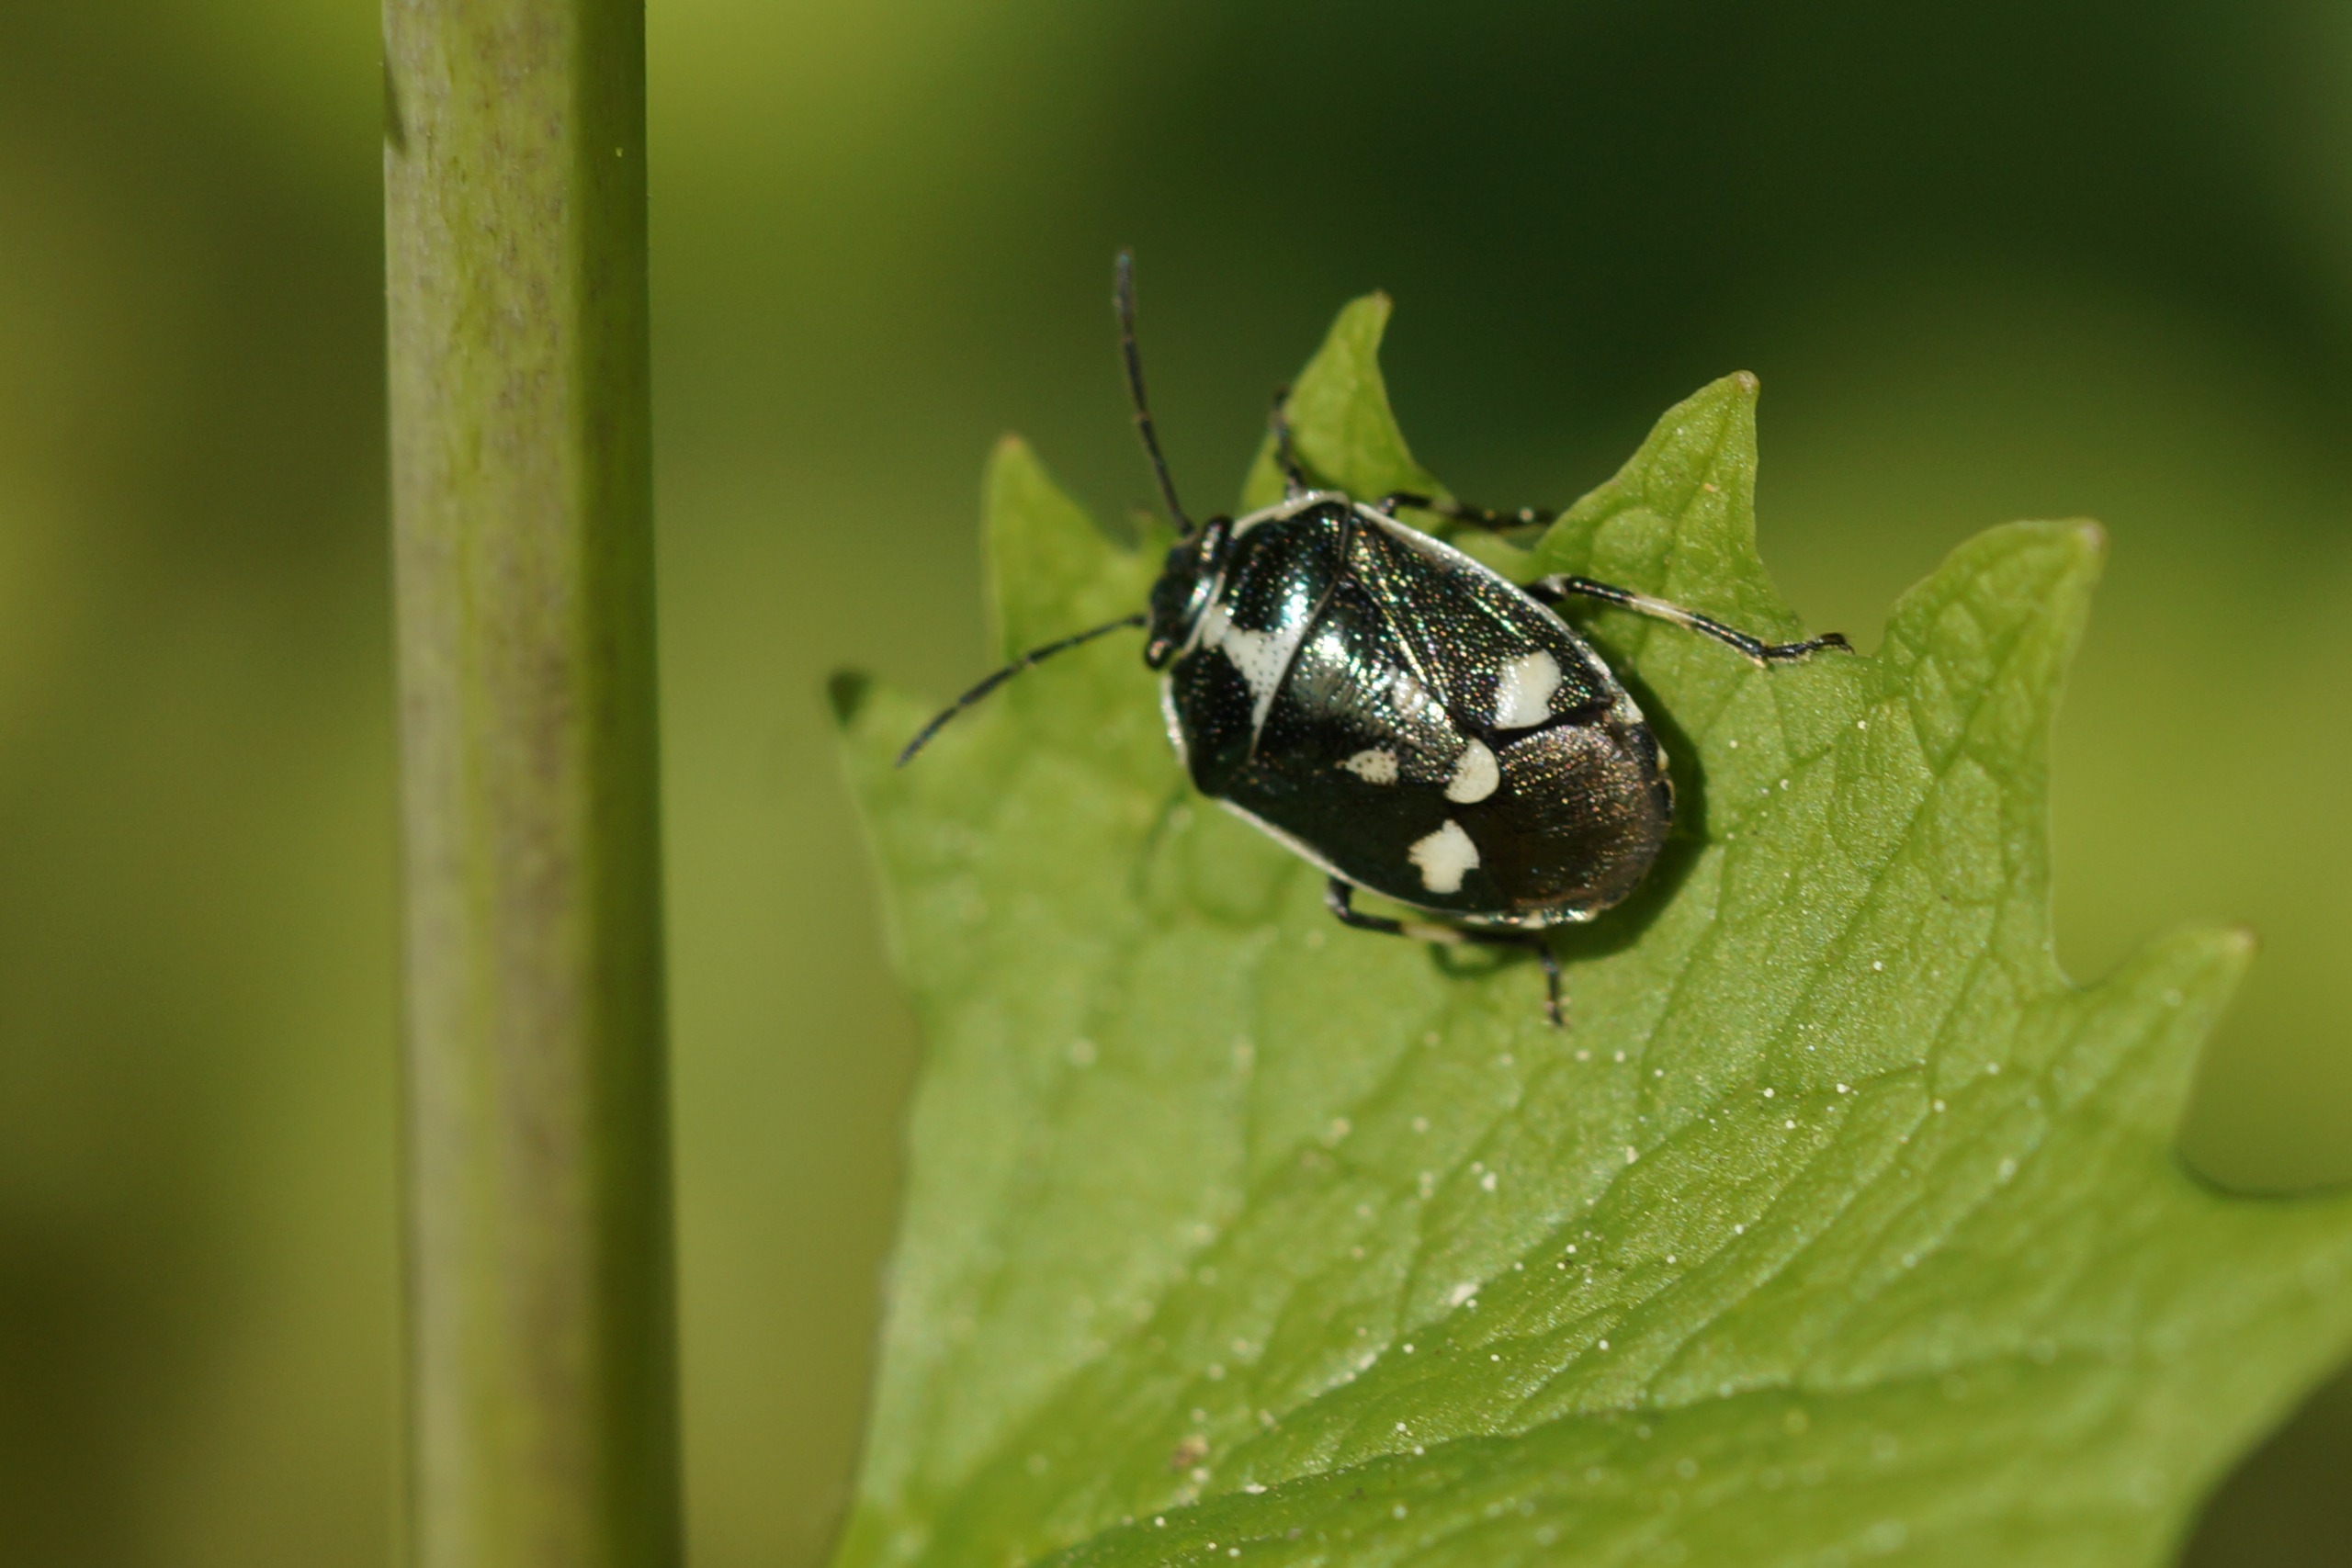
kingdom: Animalia
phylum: Arthropoda
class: Insecta
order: Hemiptera
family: Pentatomidae
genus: Eurydema
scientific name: Eurydema oleracea
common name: Almindelig kåltæge
